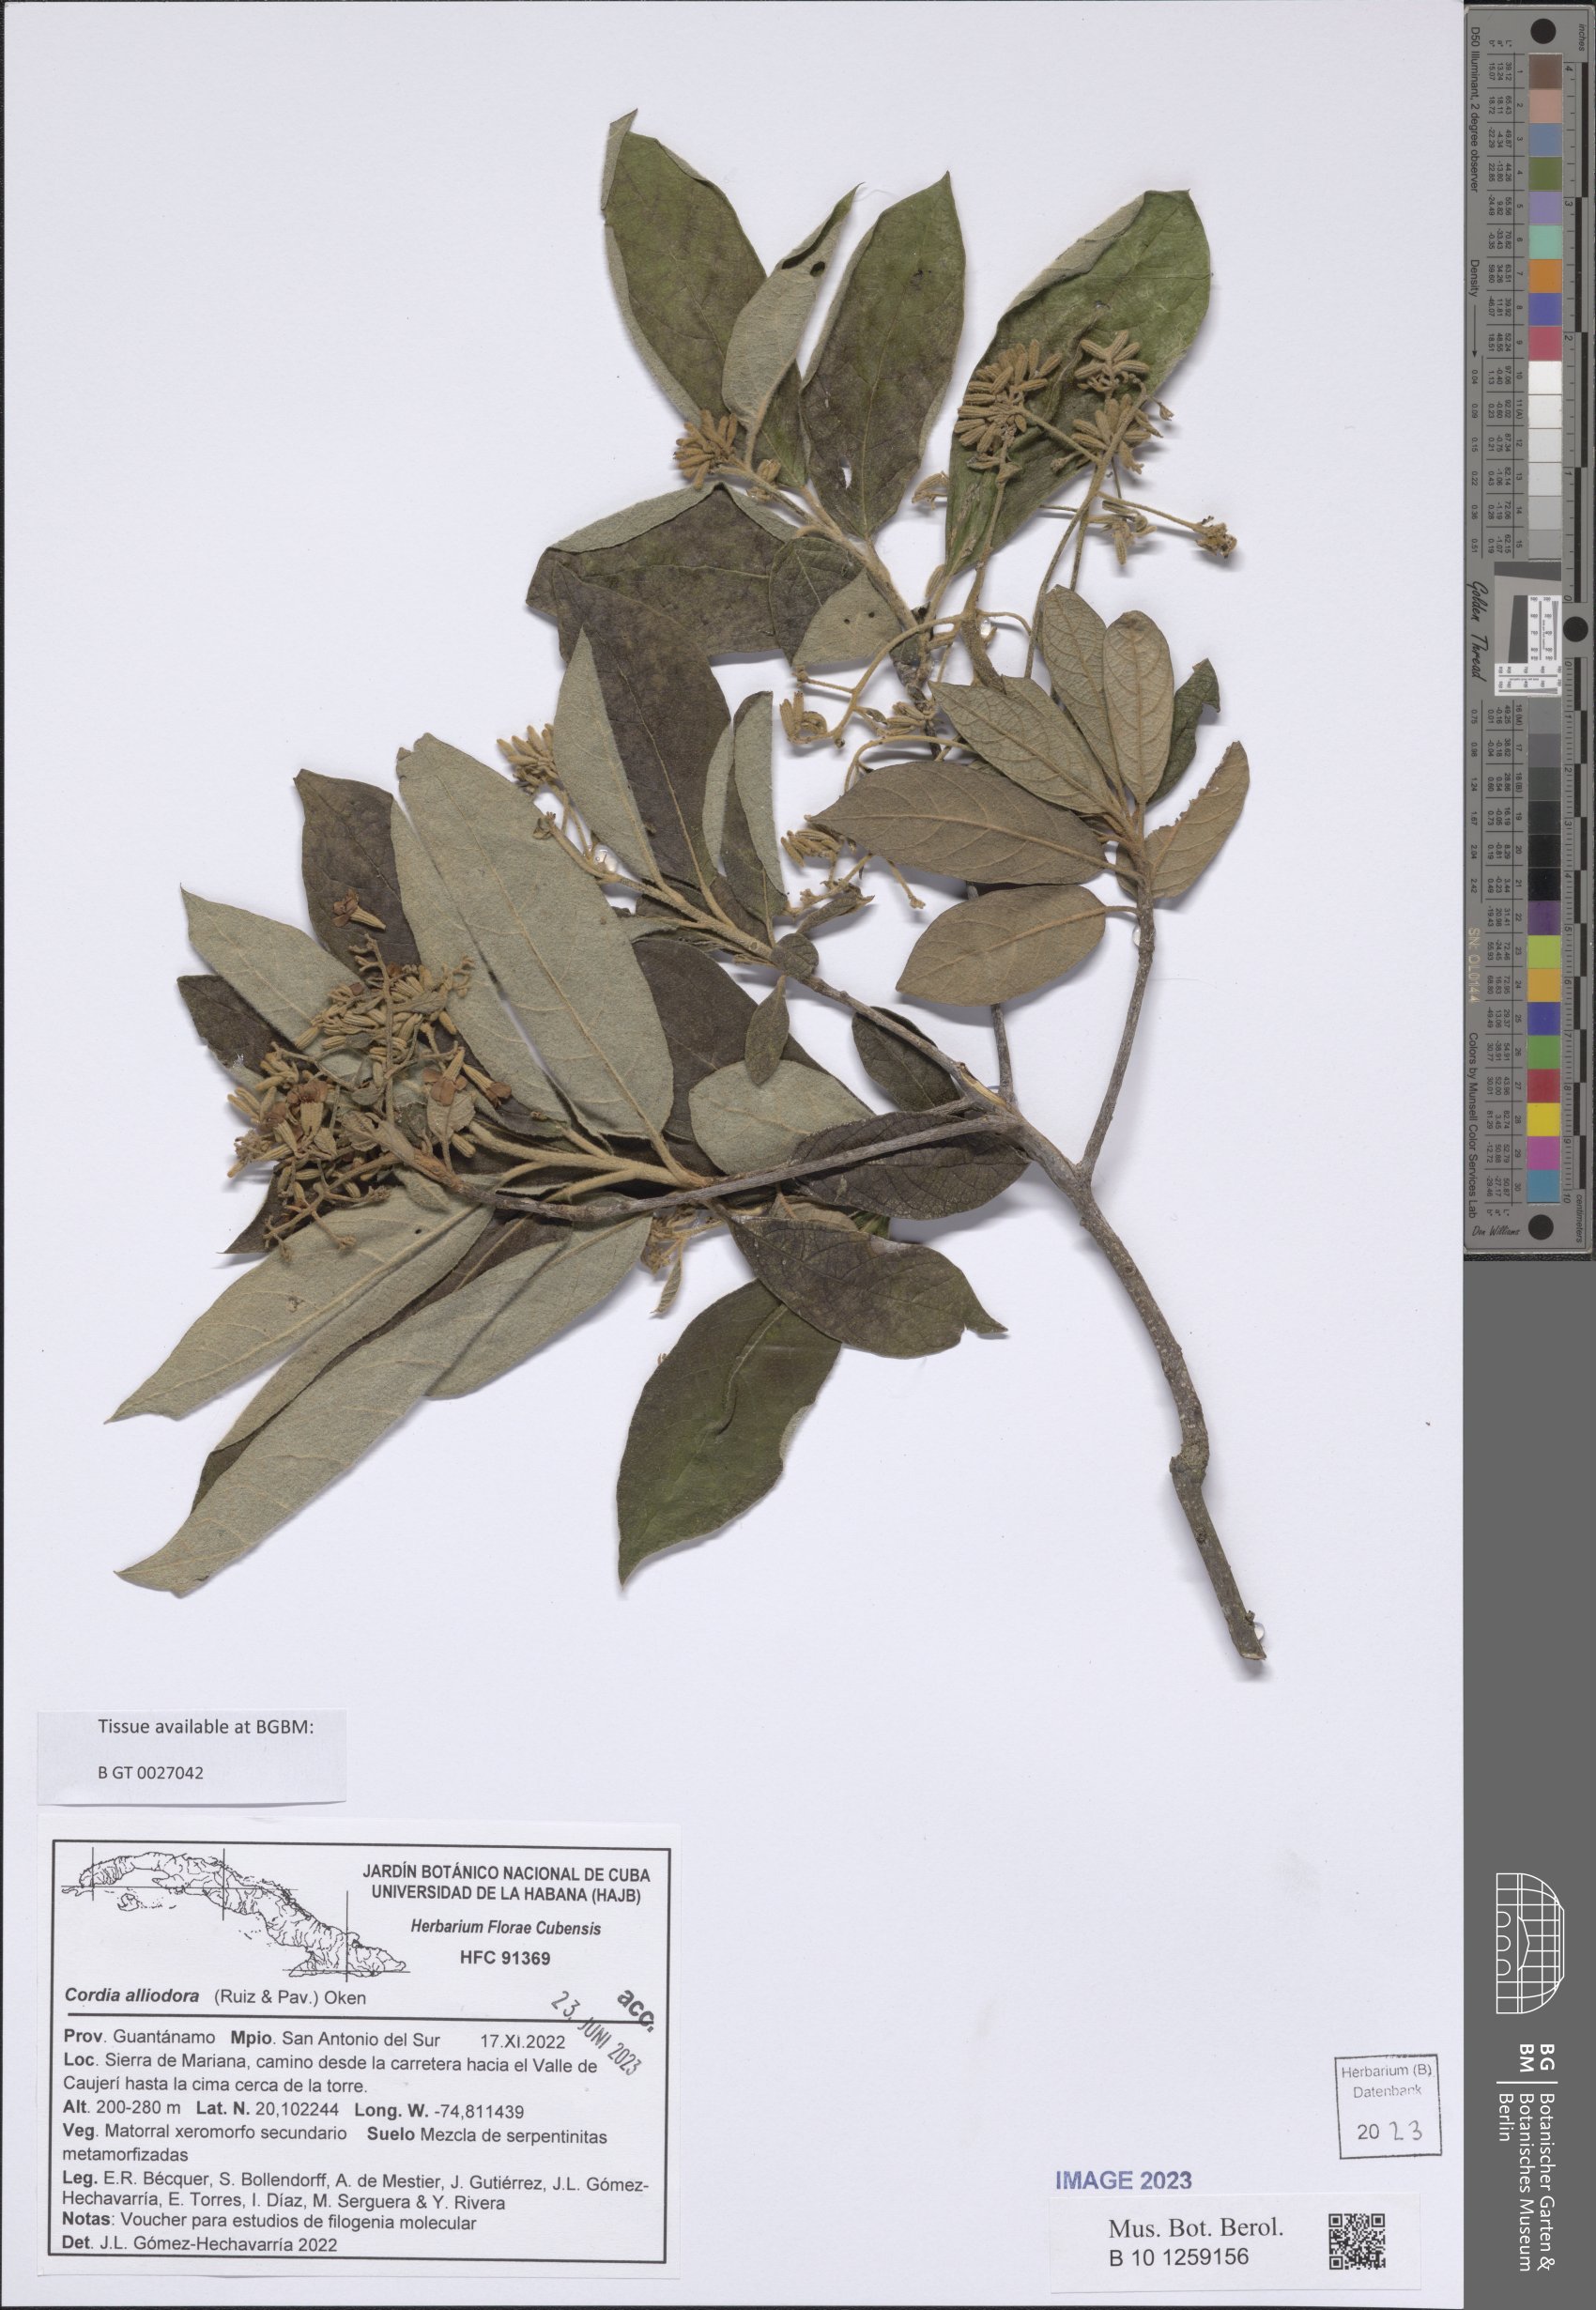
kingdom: Plantae
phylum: Tracheophyta
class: Magnoliopsida
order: Boraginales
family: Cordiaceae
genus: Cordia
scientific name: Cordia alliodora
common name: Spanish elm
